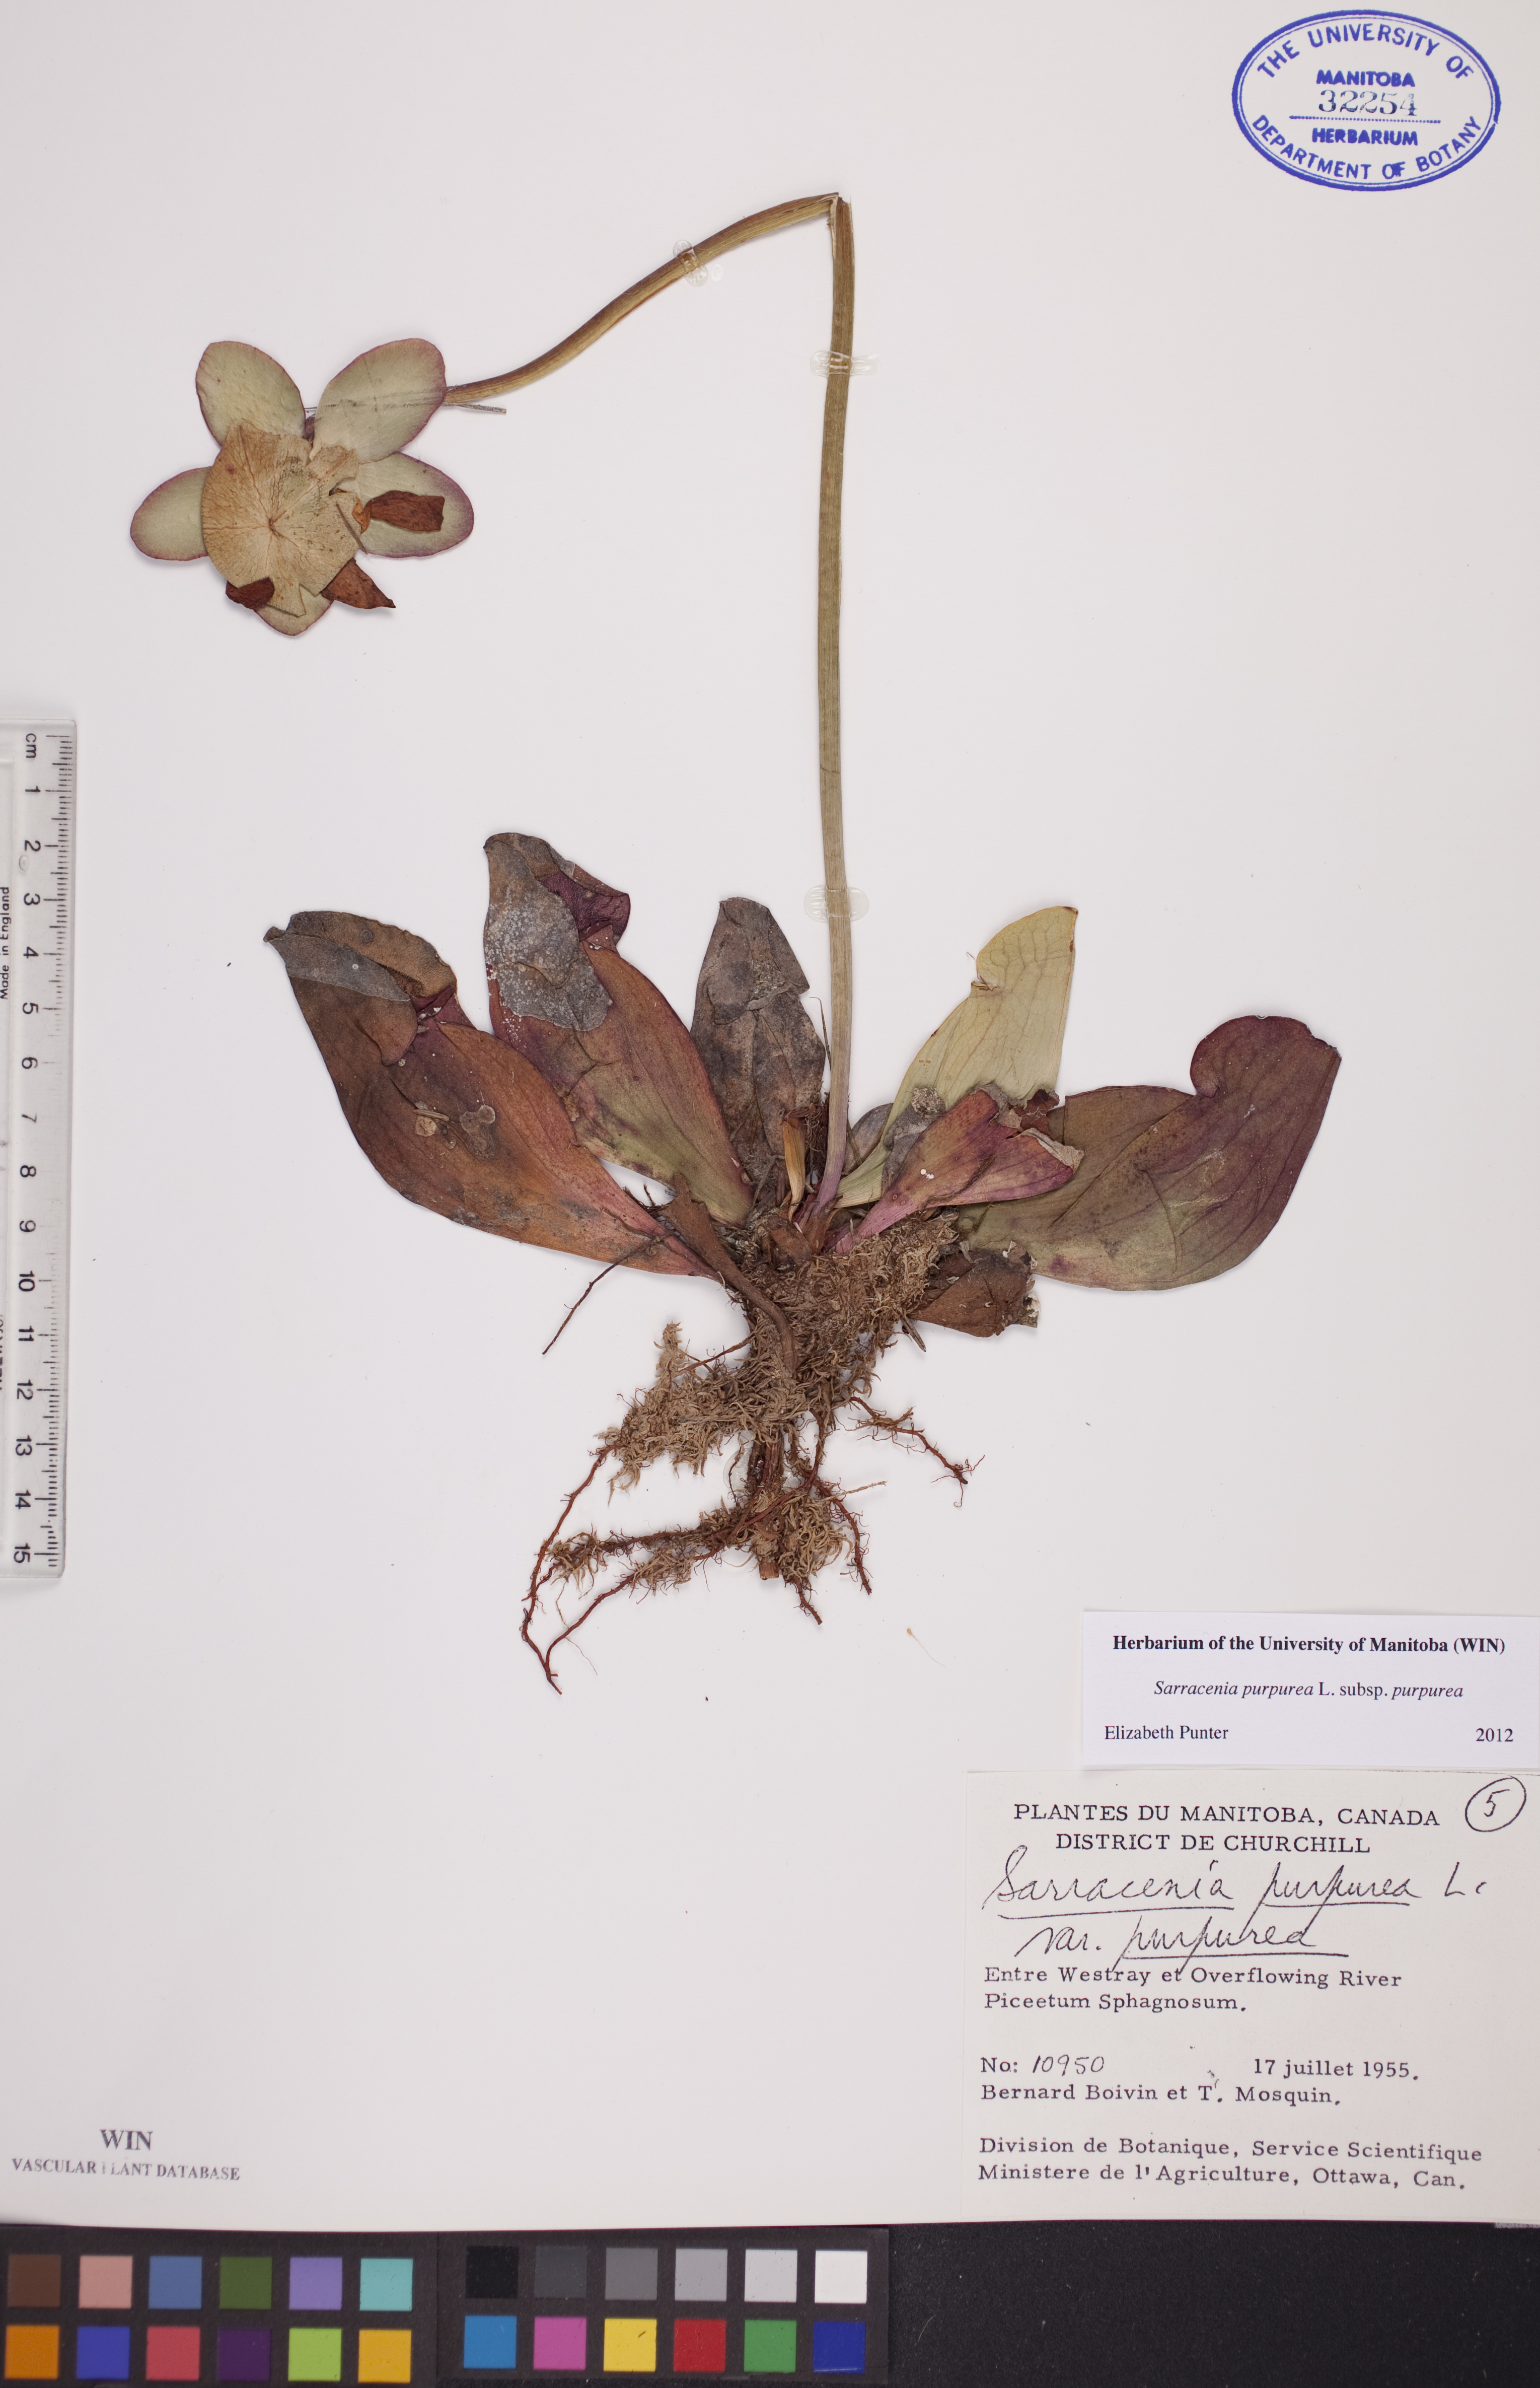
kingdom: Plantae
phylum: Tracheophyta
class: Magnoliopsida
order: Ericales
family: Sarraceniaceae
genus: Sarracenia
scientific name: Sarracenia purpurea
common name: Pitcherplant
